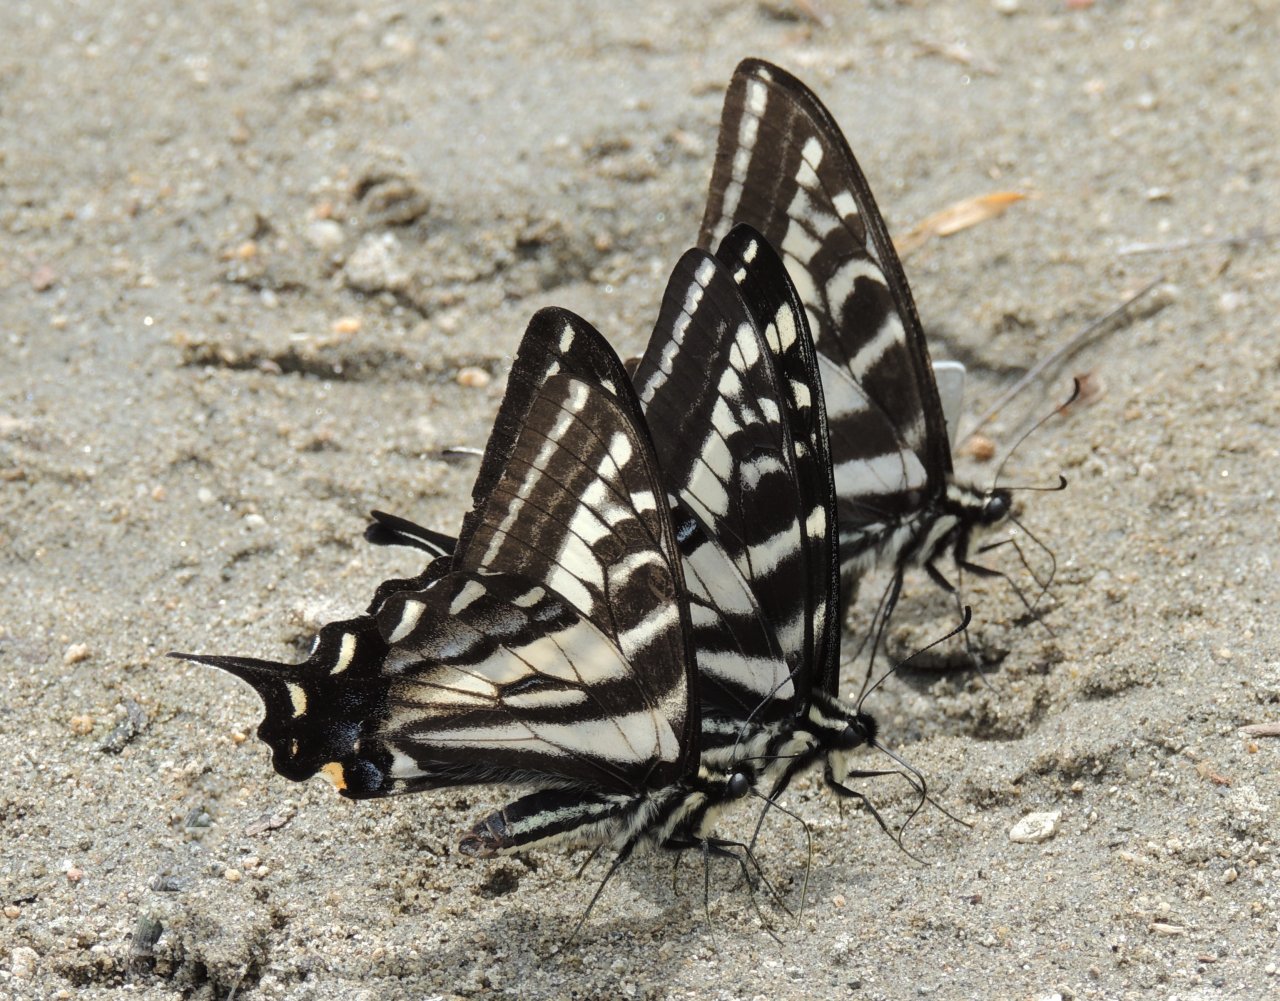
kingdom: Animalia
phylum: Arthropoda
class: Insecta
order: Lepidoptera
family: Papilionidae
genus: Pterourus
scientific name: Pterourus eurymedon
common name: Pale Swallowtail
